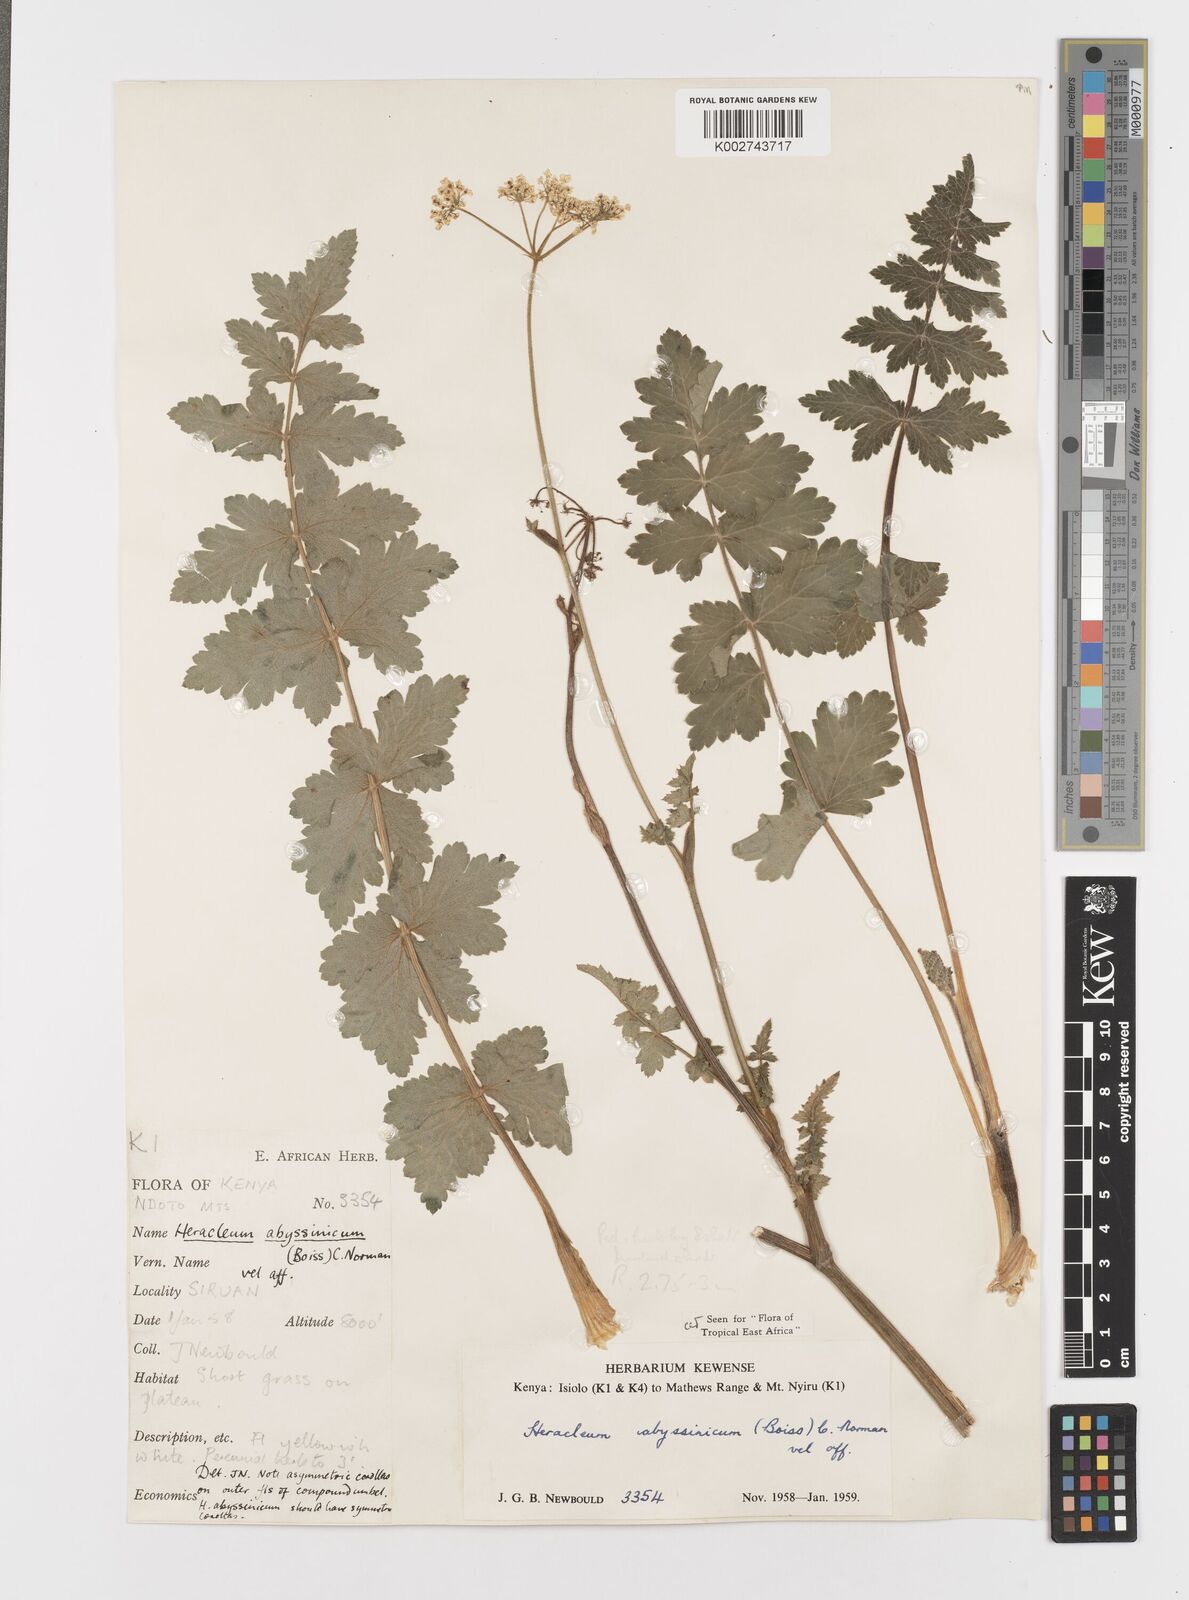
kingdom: Plantae
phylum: Tracheophyta
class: Magnoliopsida
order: Apiales
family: Apiaceae
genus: Heracleum
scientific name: Heracleum abyssinicum
